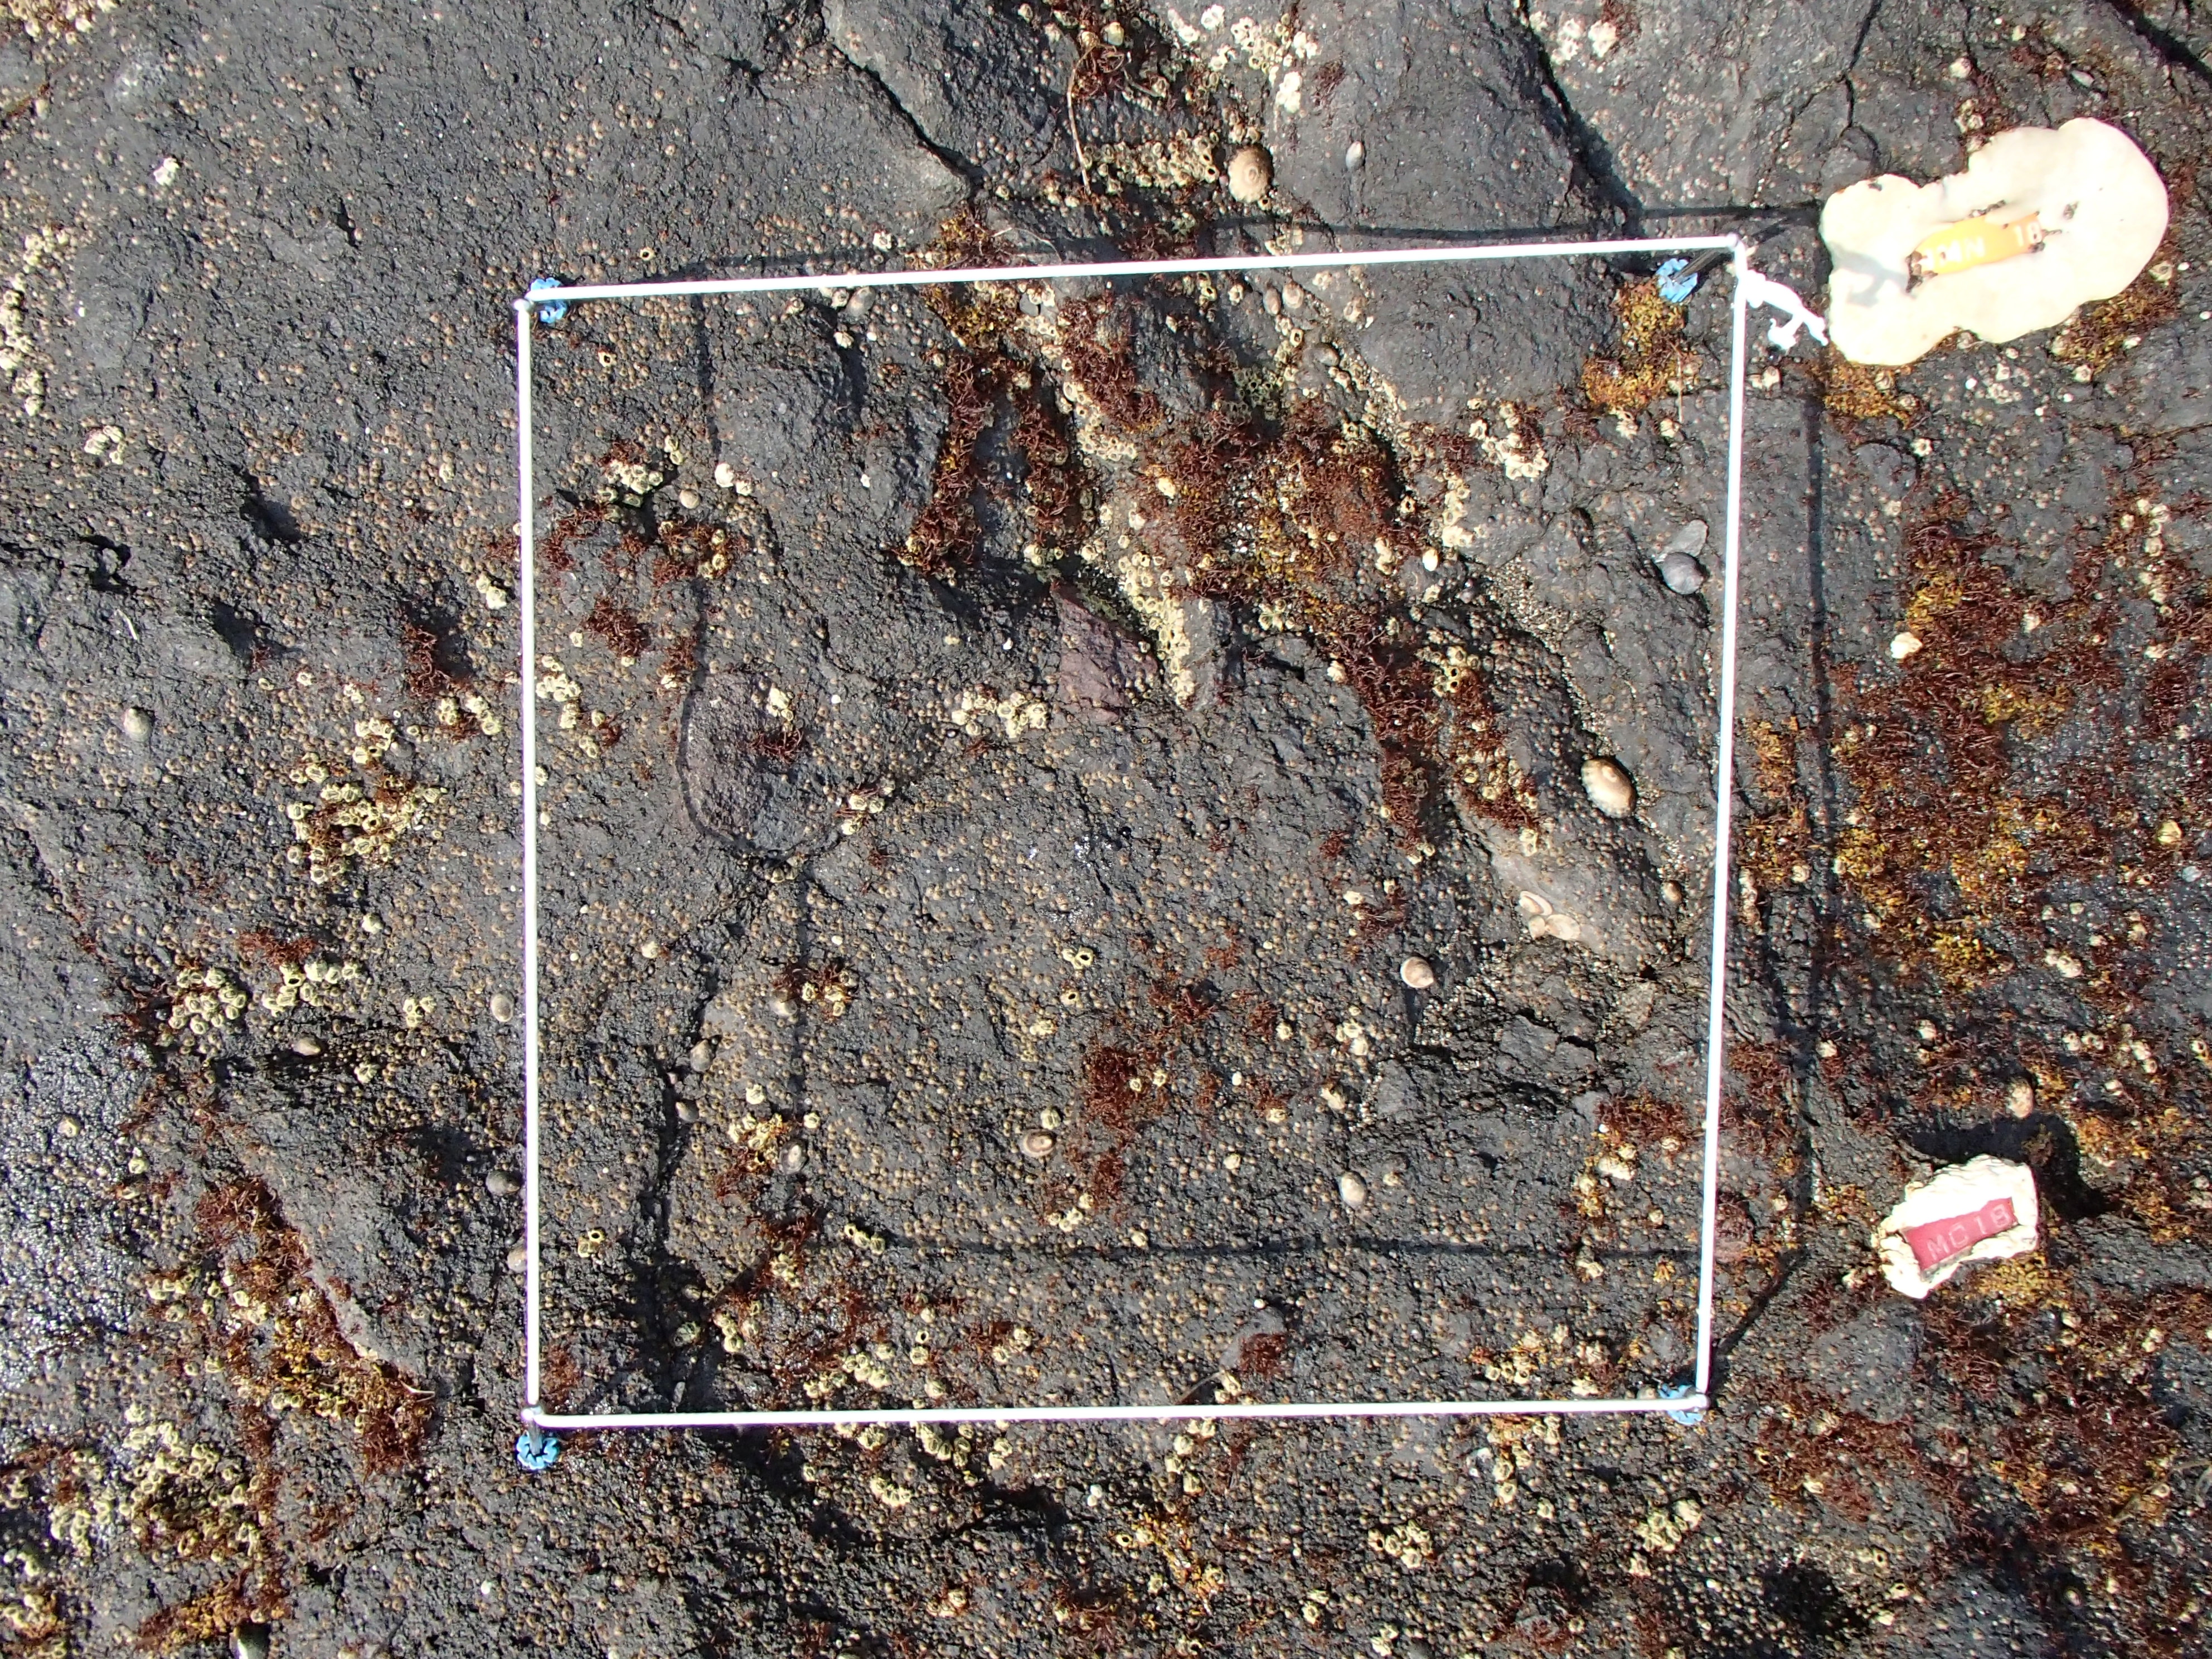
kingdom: Animalia
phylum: Arthropoda
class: Maxillopoda
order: Sessilia
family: Chthamalidae
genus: Chthamalus
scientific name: Chthamalus dalli
